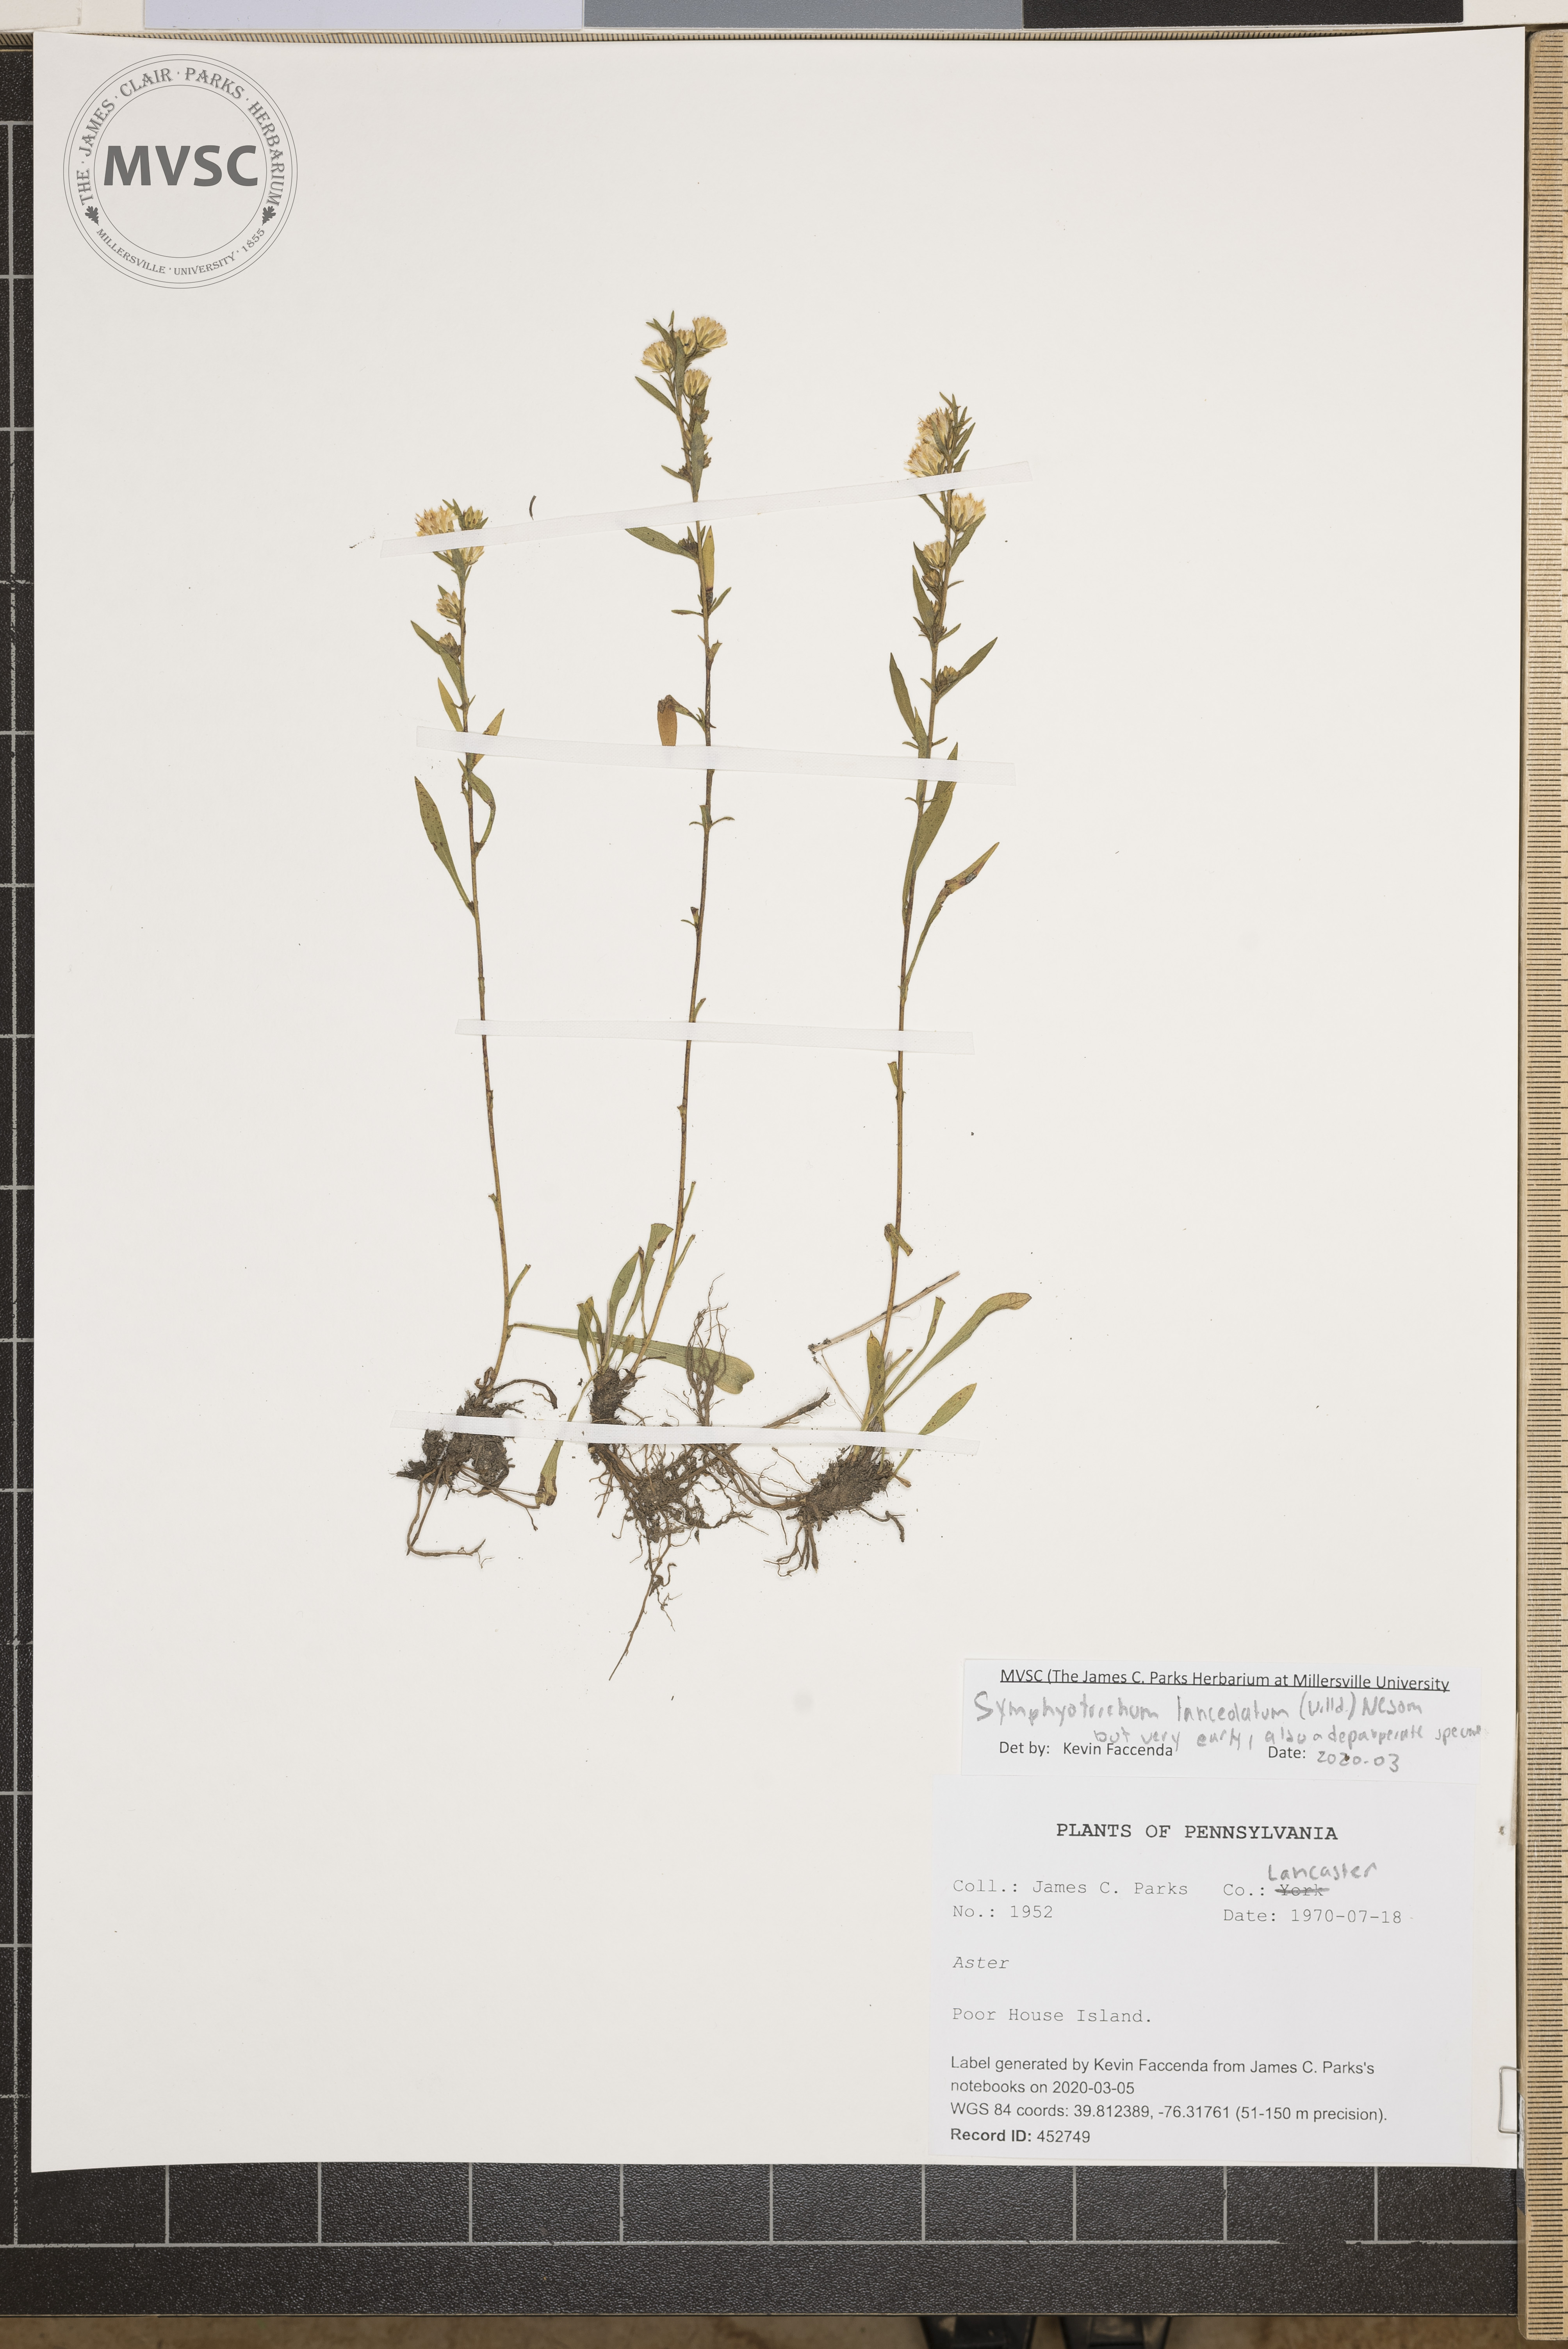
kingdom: Plantae
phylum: Tracheophyta
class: Magnoliopsida
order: Asterales
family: Asteraceae
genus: Symphyotrichum
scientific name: Symphyotrichum lanceolatum
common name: Panicled aster
